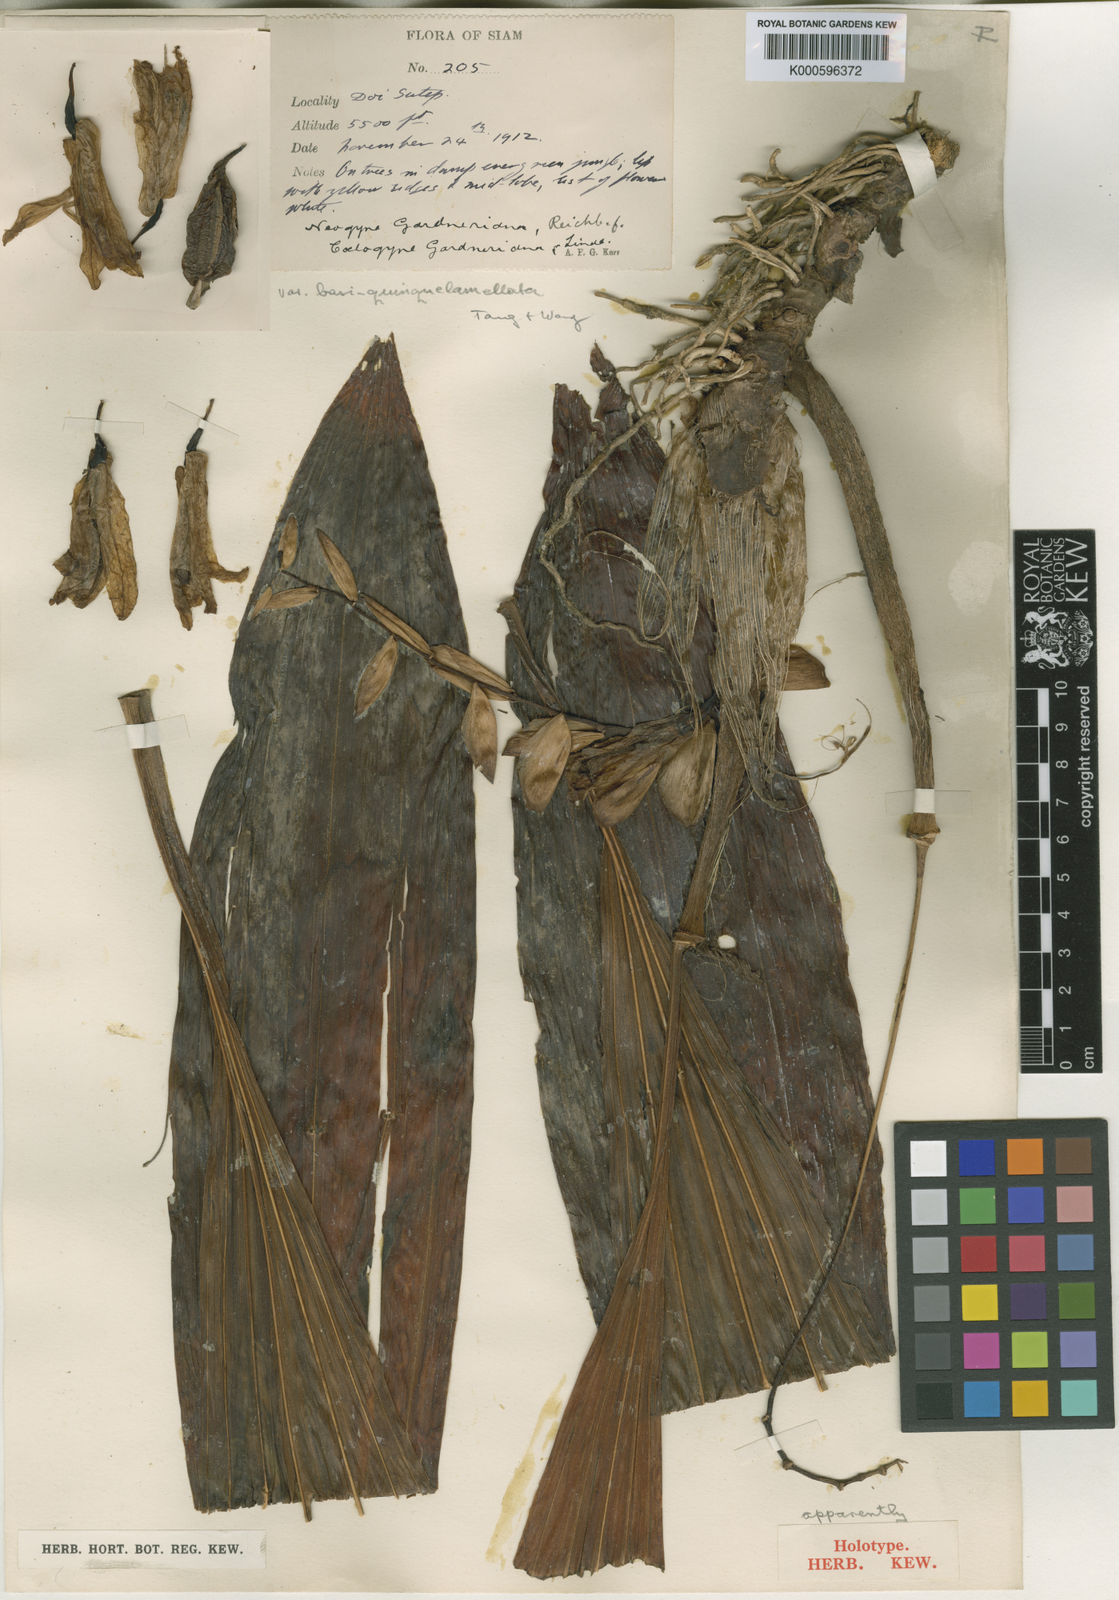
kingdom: Plantae
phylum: Tracheophyta
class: Liliopsida
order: Asparagales
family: Orchidaceae
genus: Coelogyne
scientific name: Coelogyne gardneriana
